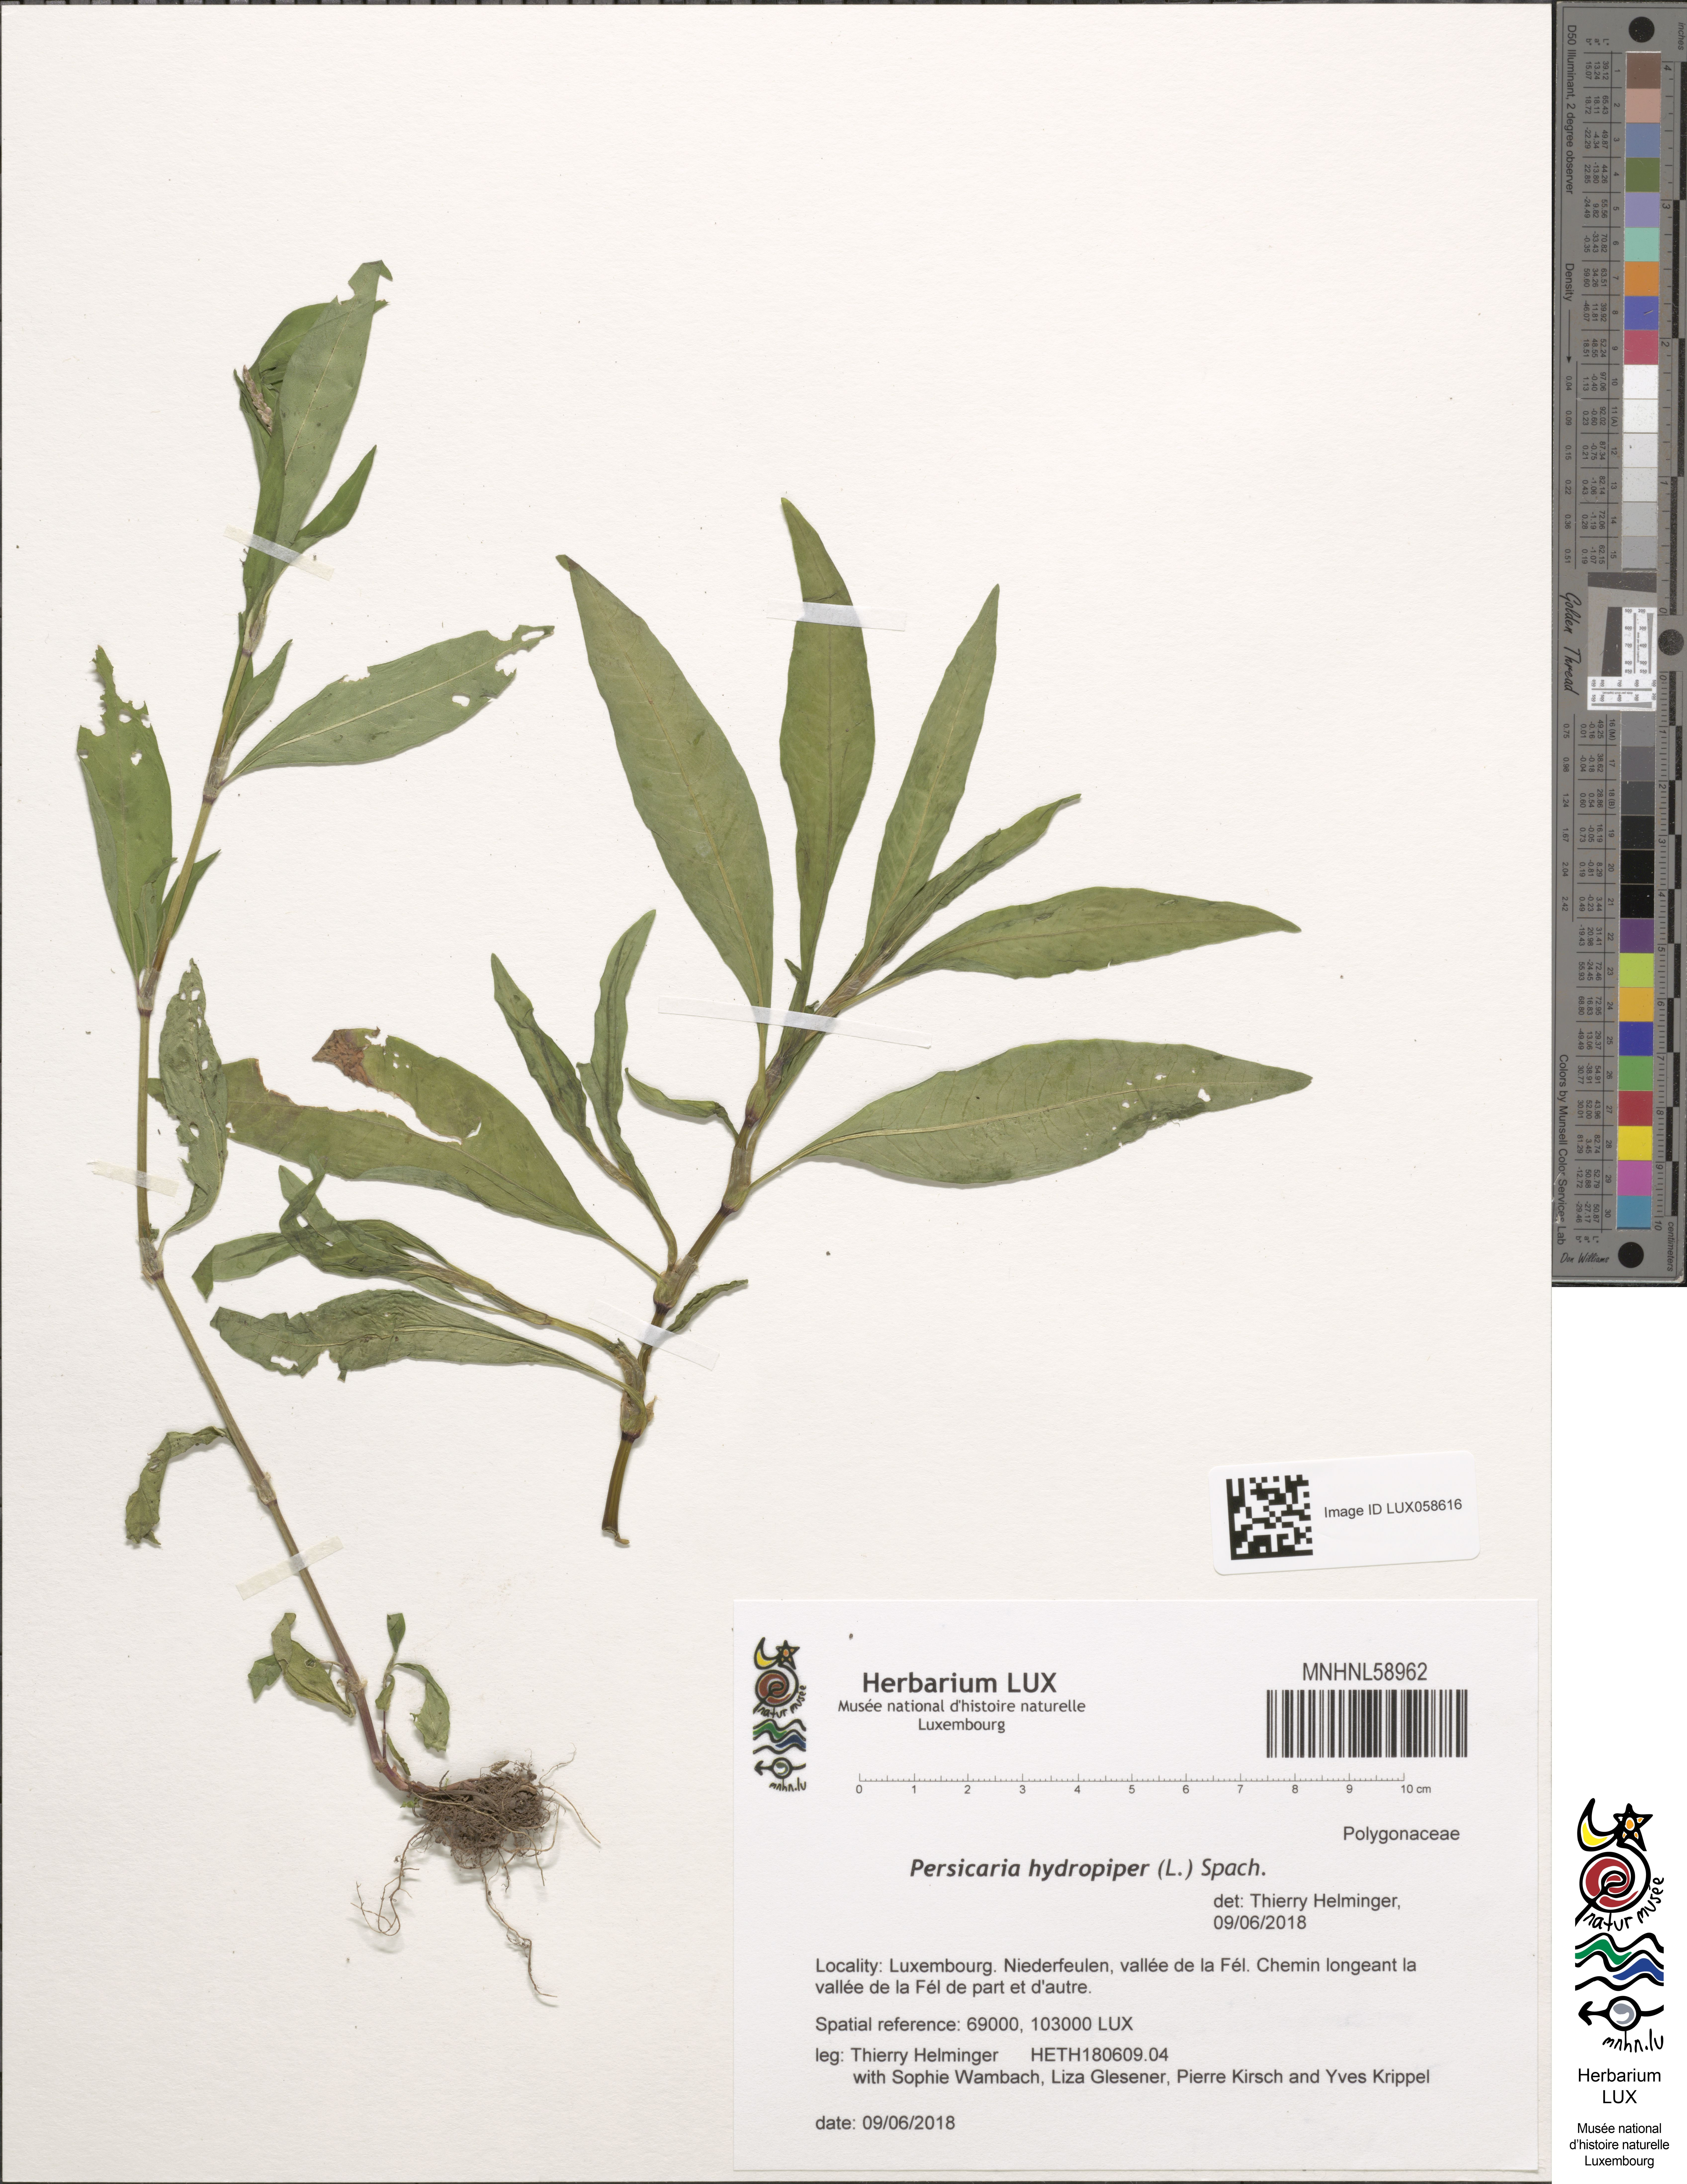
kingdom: Plantae
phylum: Tracheophyta
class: Magnoliopsida
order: Caryophyllales
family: Polygonaceae
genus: Persicaria
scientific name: Persicaria hydropiper
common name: Water-pepper
